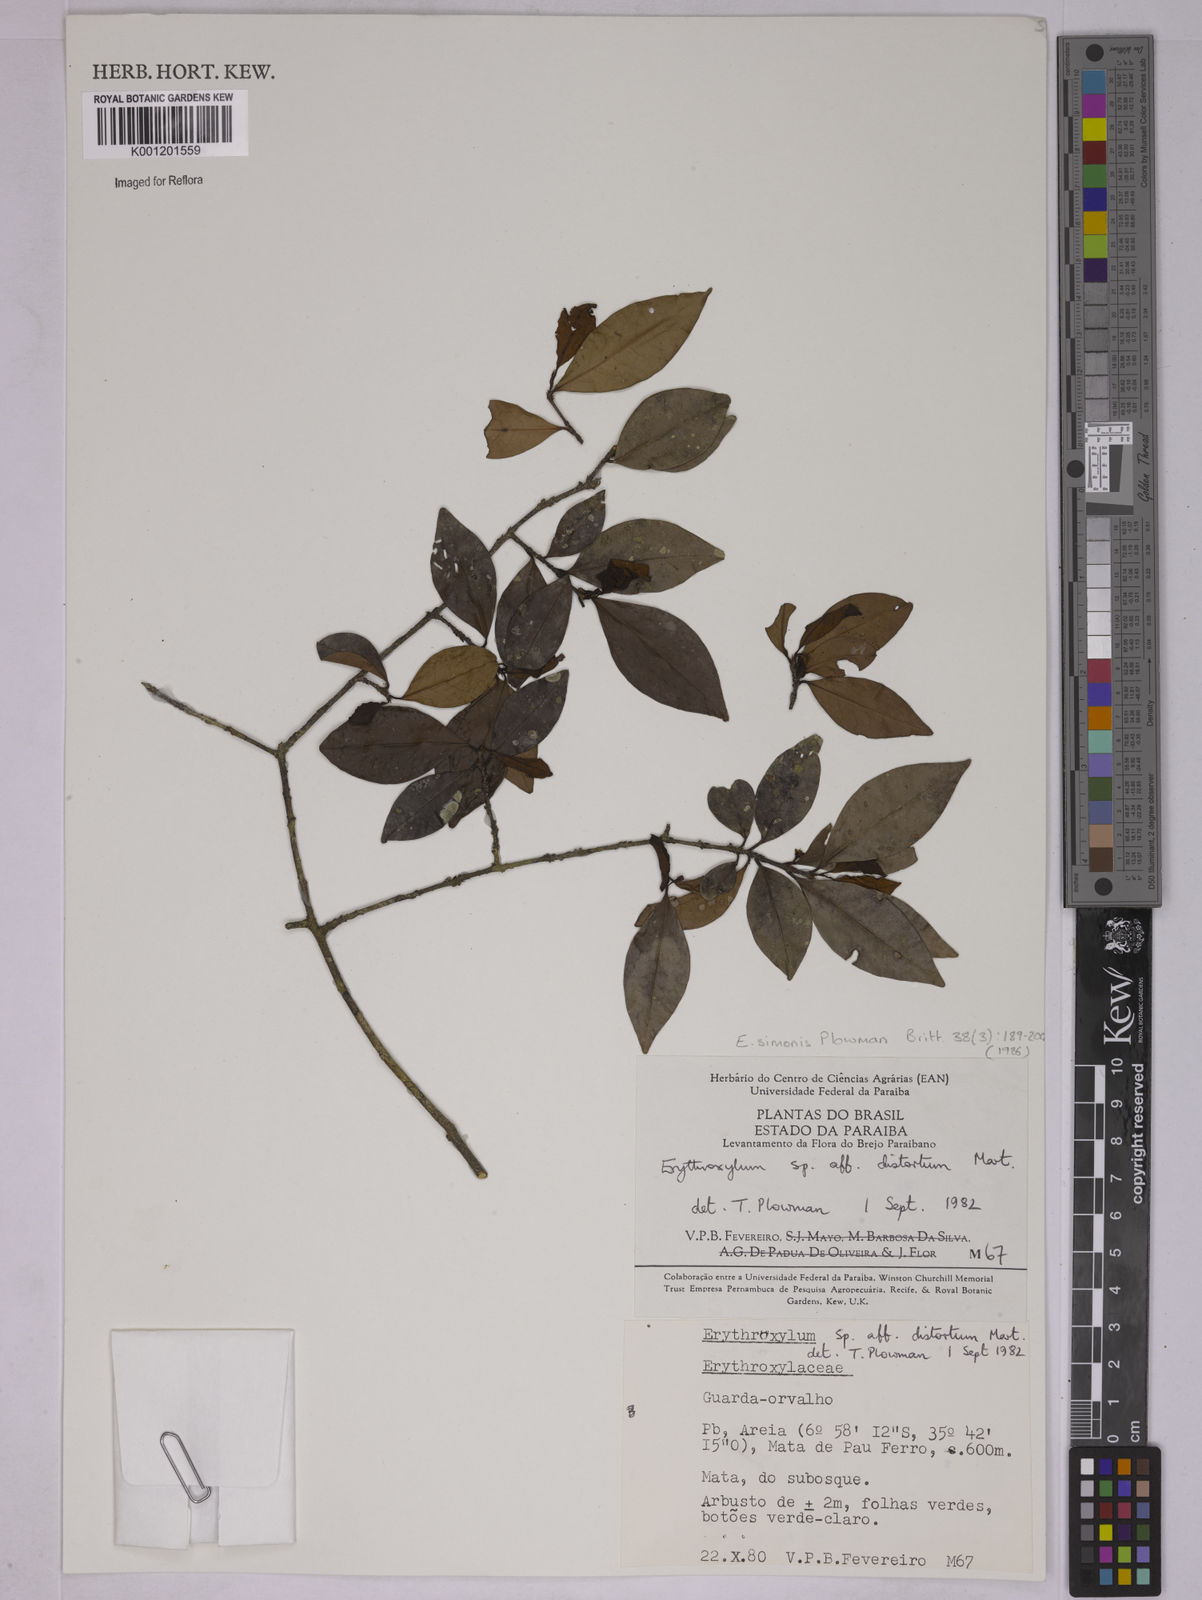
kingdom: Plantae
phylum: Tracheophyta
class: Magnoliopsida
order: Malpighiales
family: Erythroxylaceae
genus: Erythroxylum
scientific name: Erythroxylum simonis
